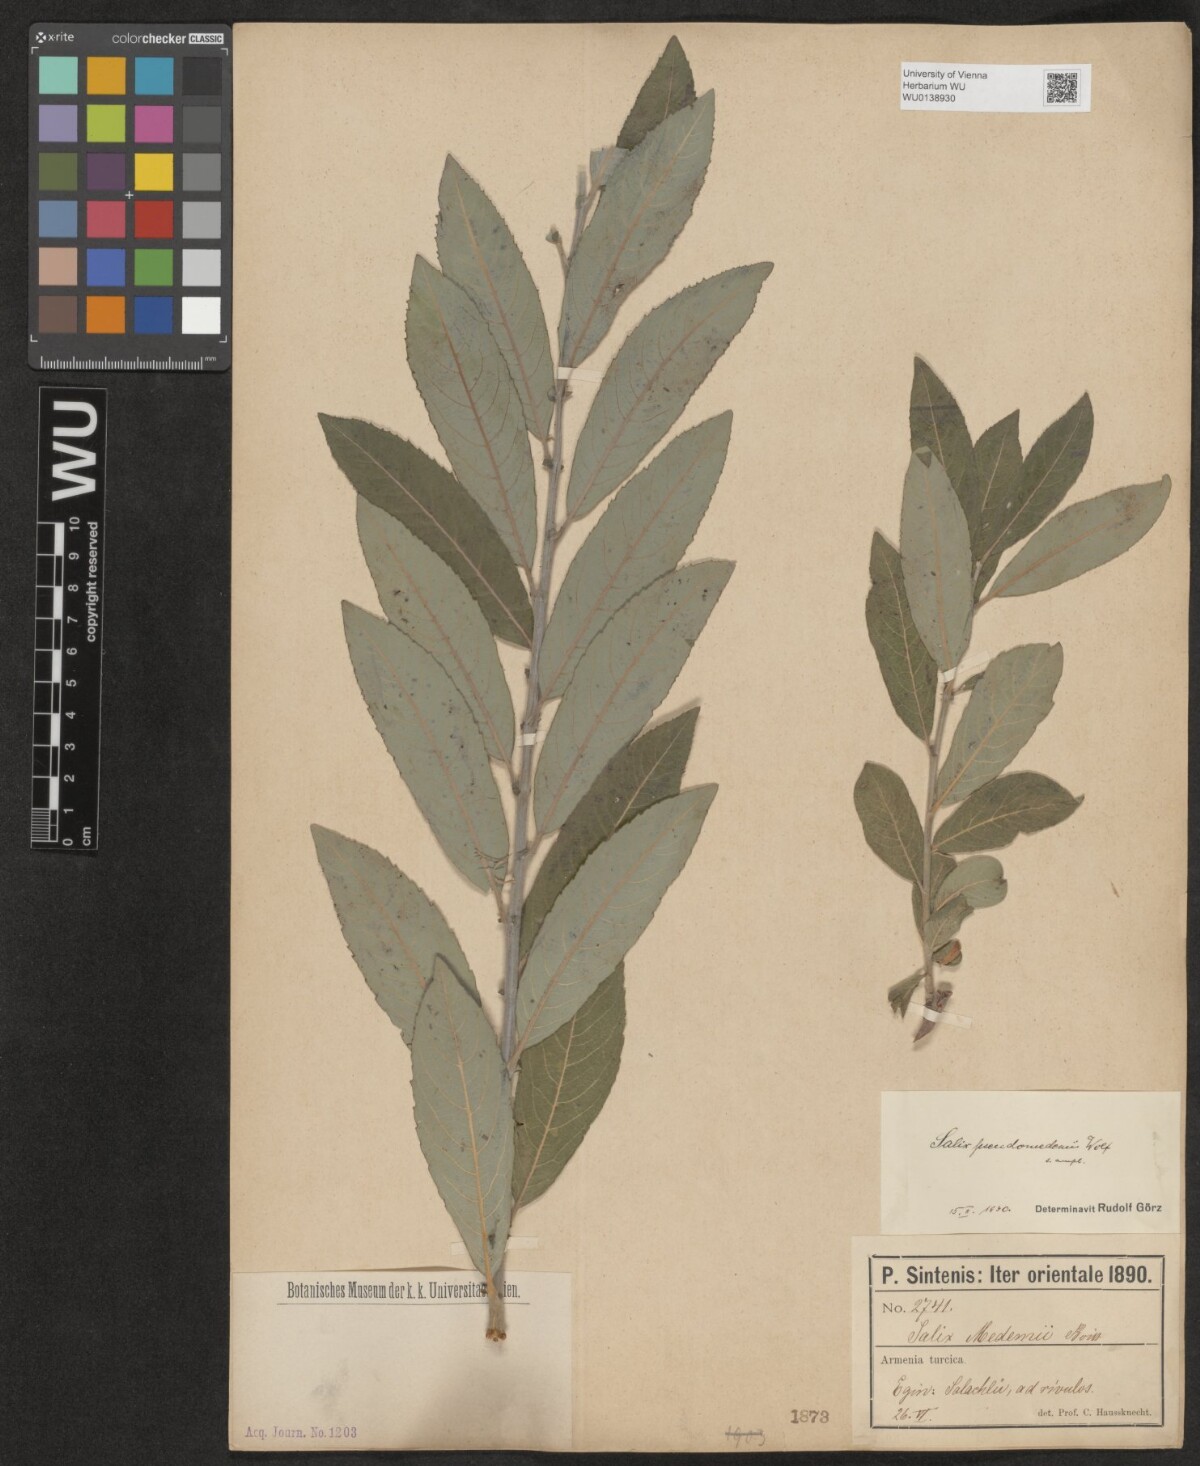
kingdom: Plantae
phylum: Tracheophyta
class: Magnoliopsida
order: Malpighiales
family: Salicaceae
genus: Salix
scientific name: Salix pseudomedemii
